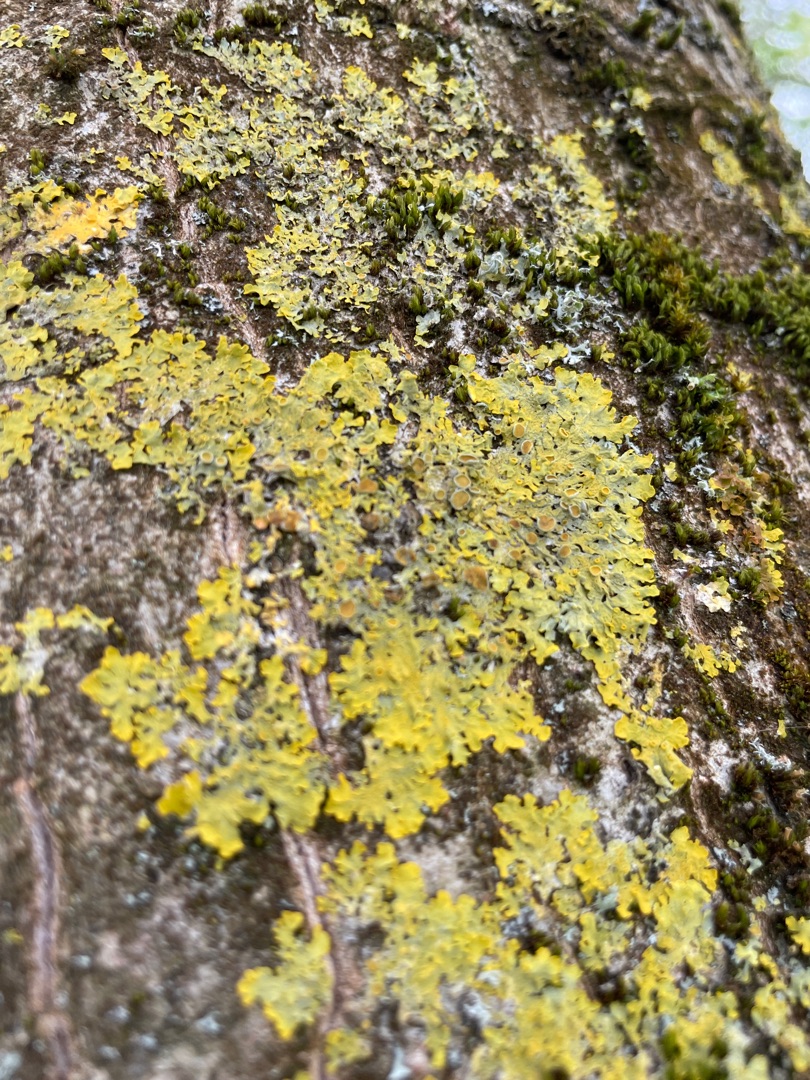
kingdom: Fungi
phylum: Ascomycota
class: Lecanoromycetes
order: Teloschistales
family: Teloschistaceae
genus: Xanthoria
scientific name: Xanthoria parietina
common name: Almindelig væggelav
